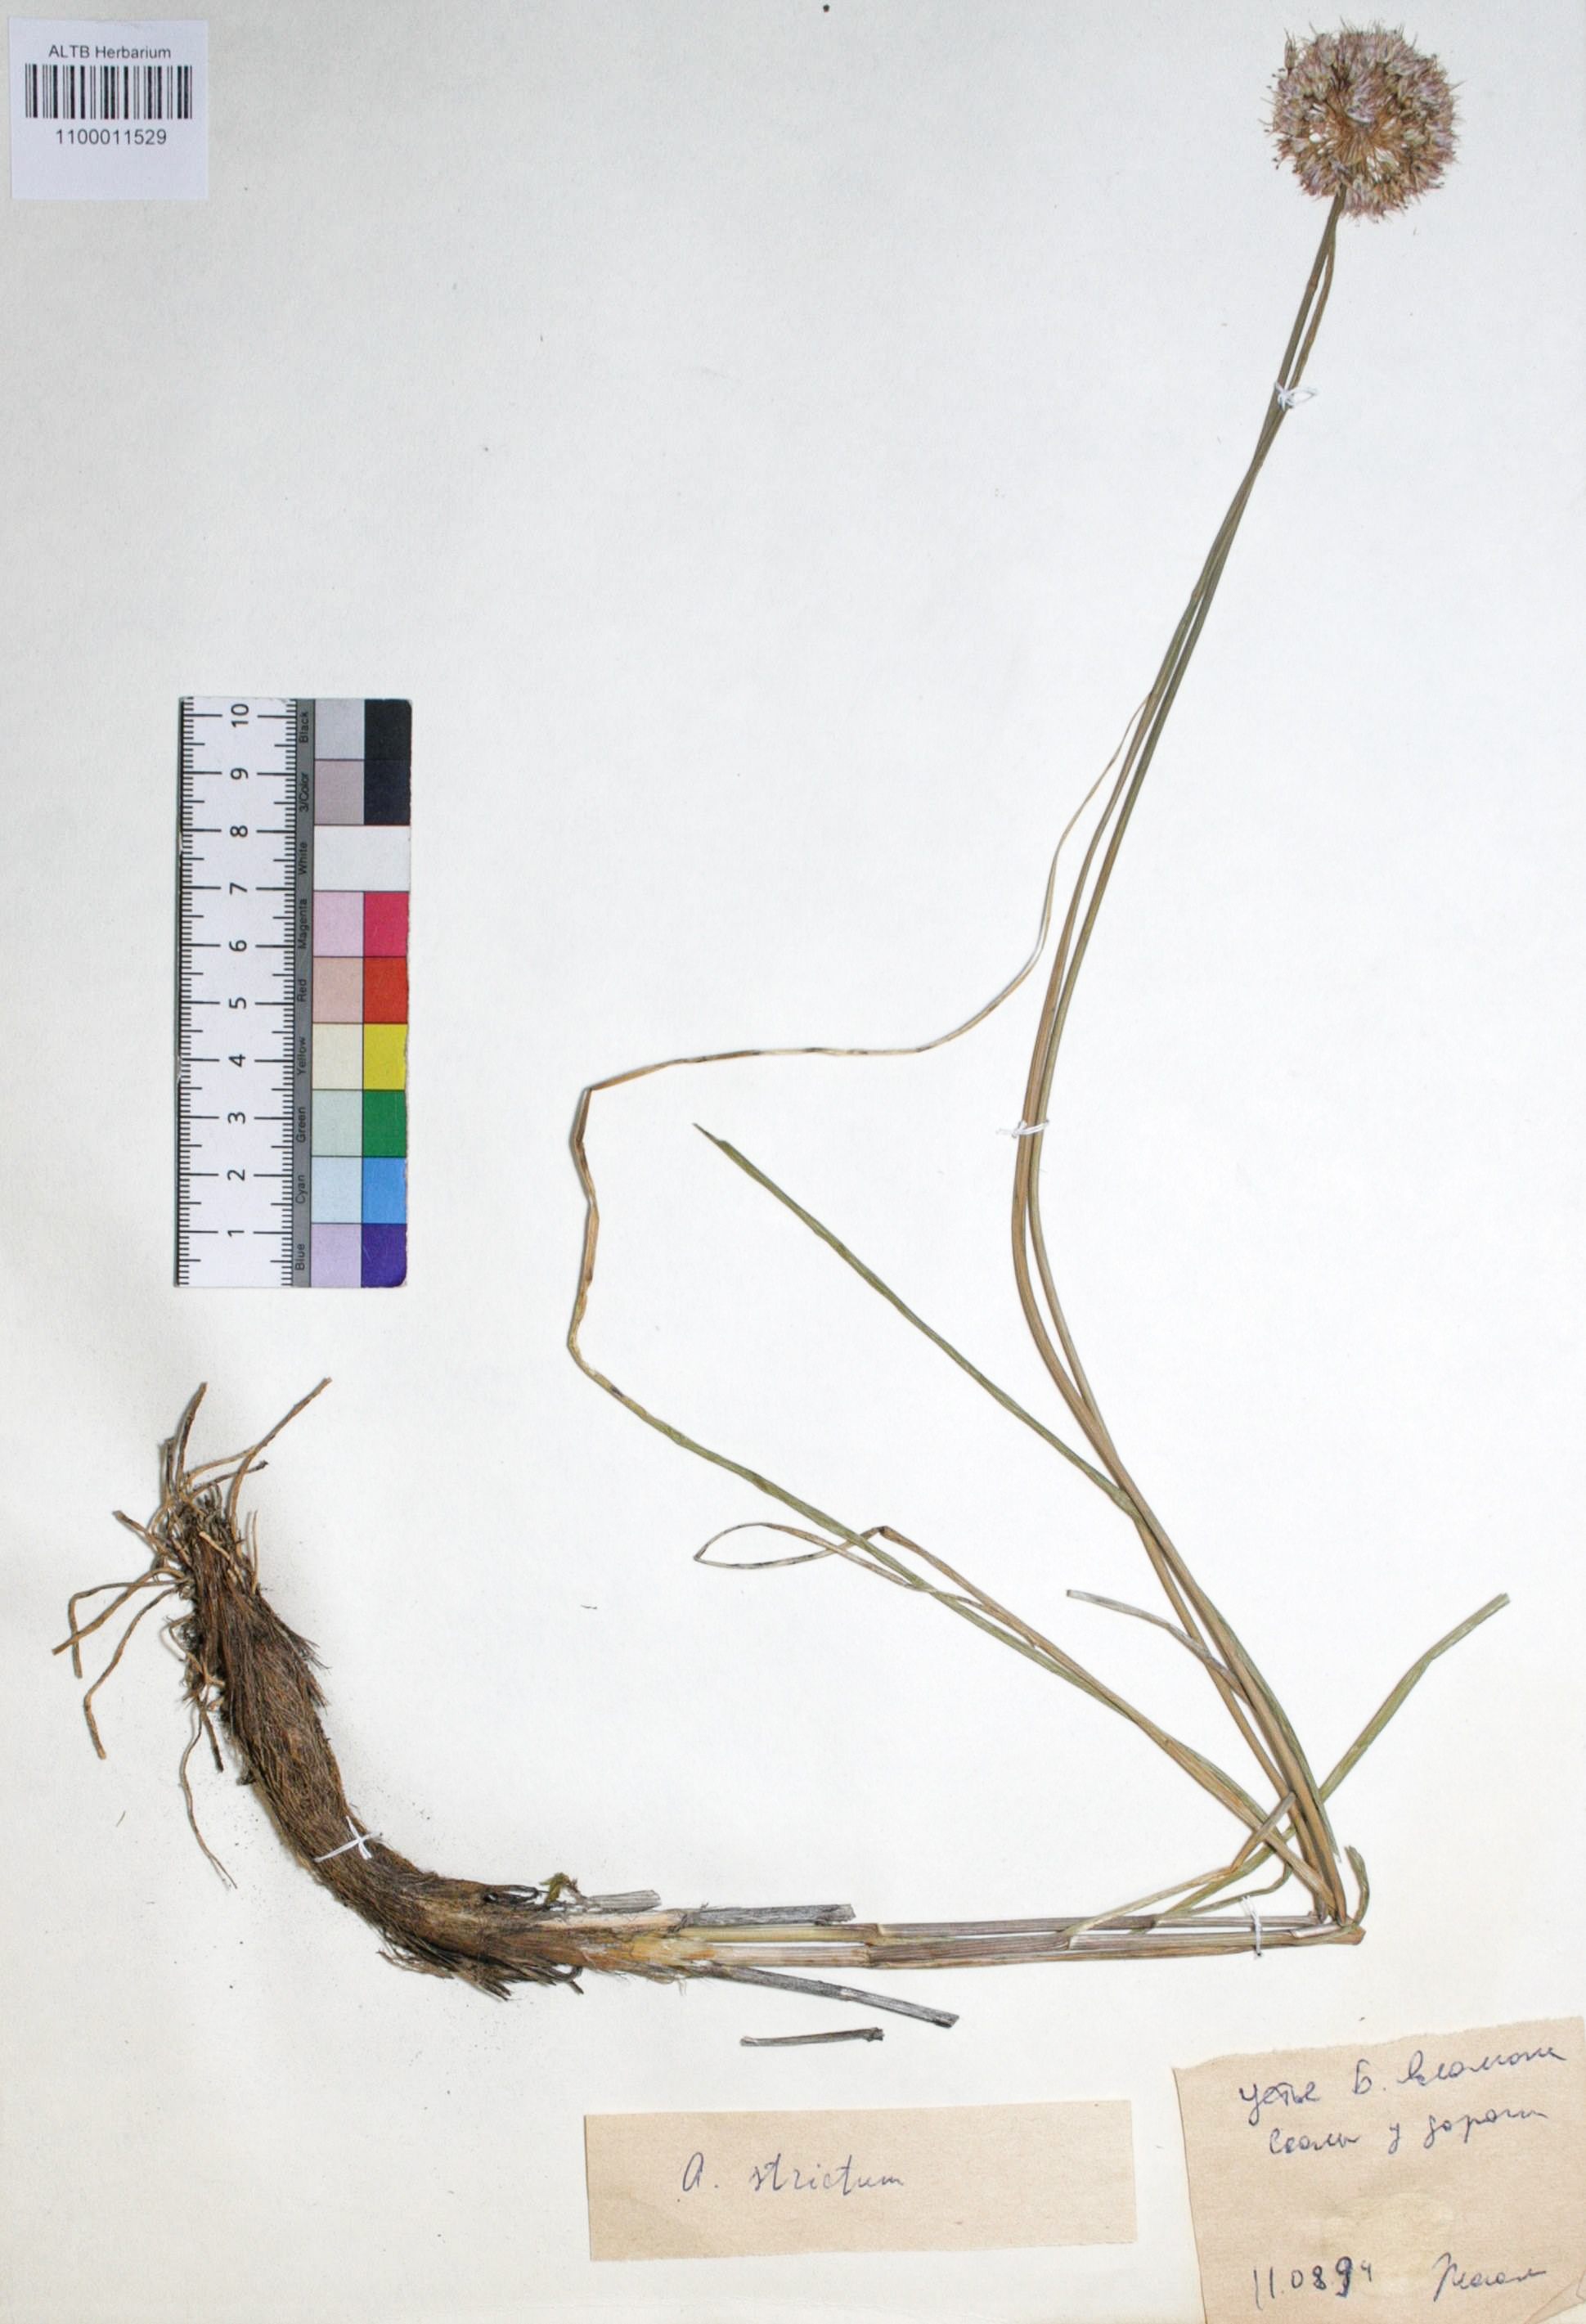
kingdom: Plantae
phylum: Tracheophyta
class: Liliopsida
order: Asparagales
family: Amaryllidaceae
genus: Allium
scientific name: Allium strictum
